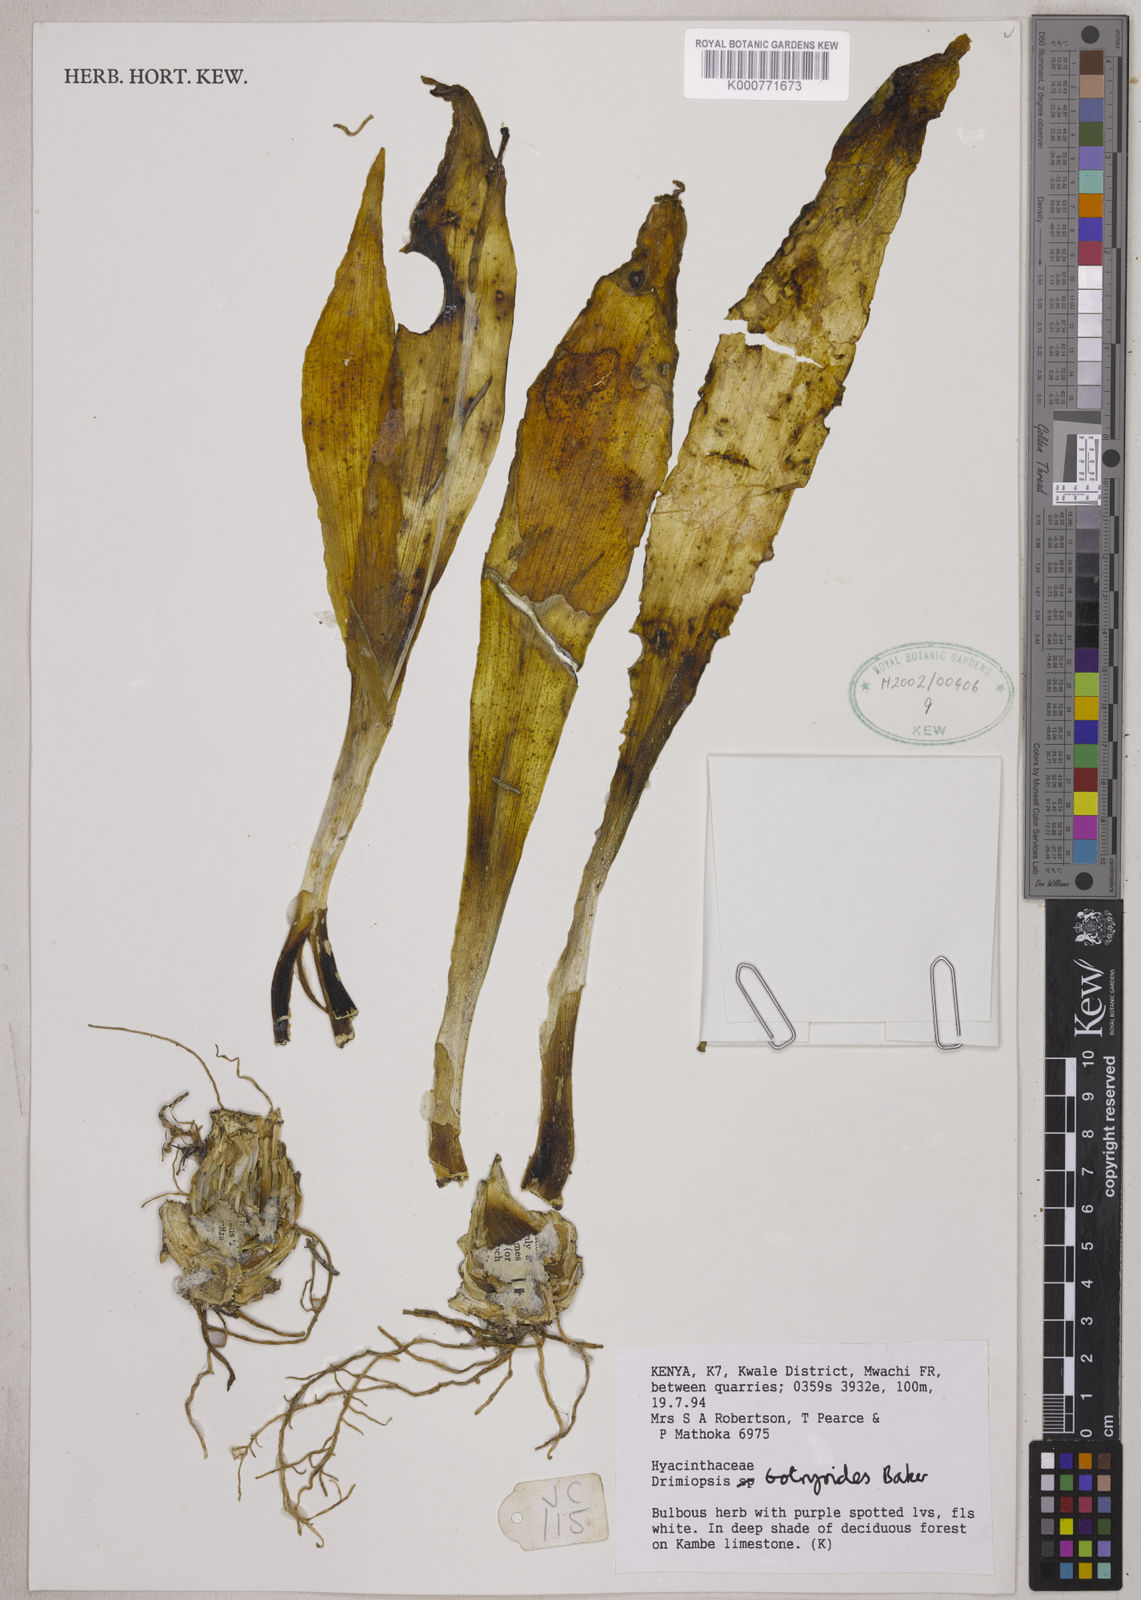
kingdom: Plantae
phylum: Tracheophyta
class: Liliopsida
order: Asparagales
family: Asparagaceae
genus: Drimiopsis
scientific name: Drimiopsis botryoides
